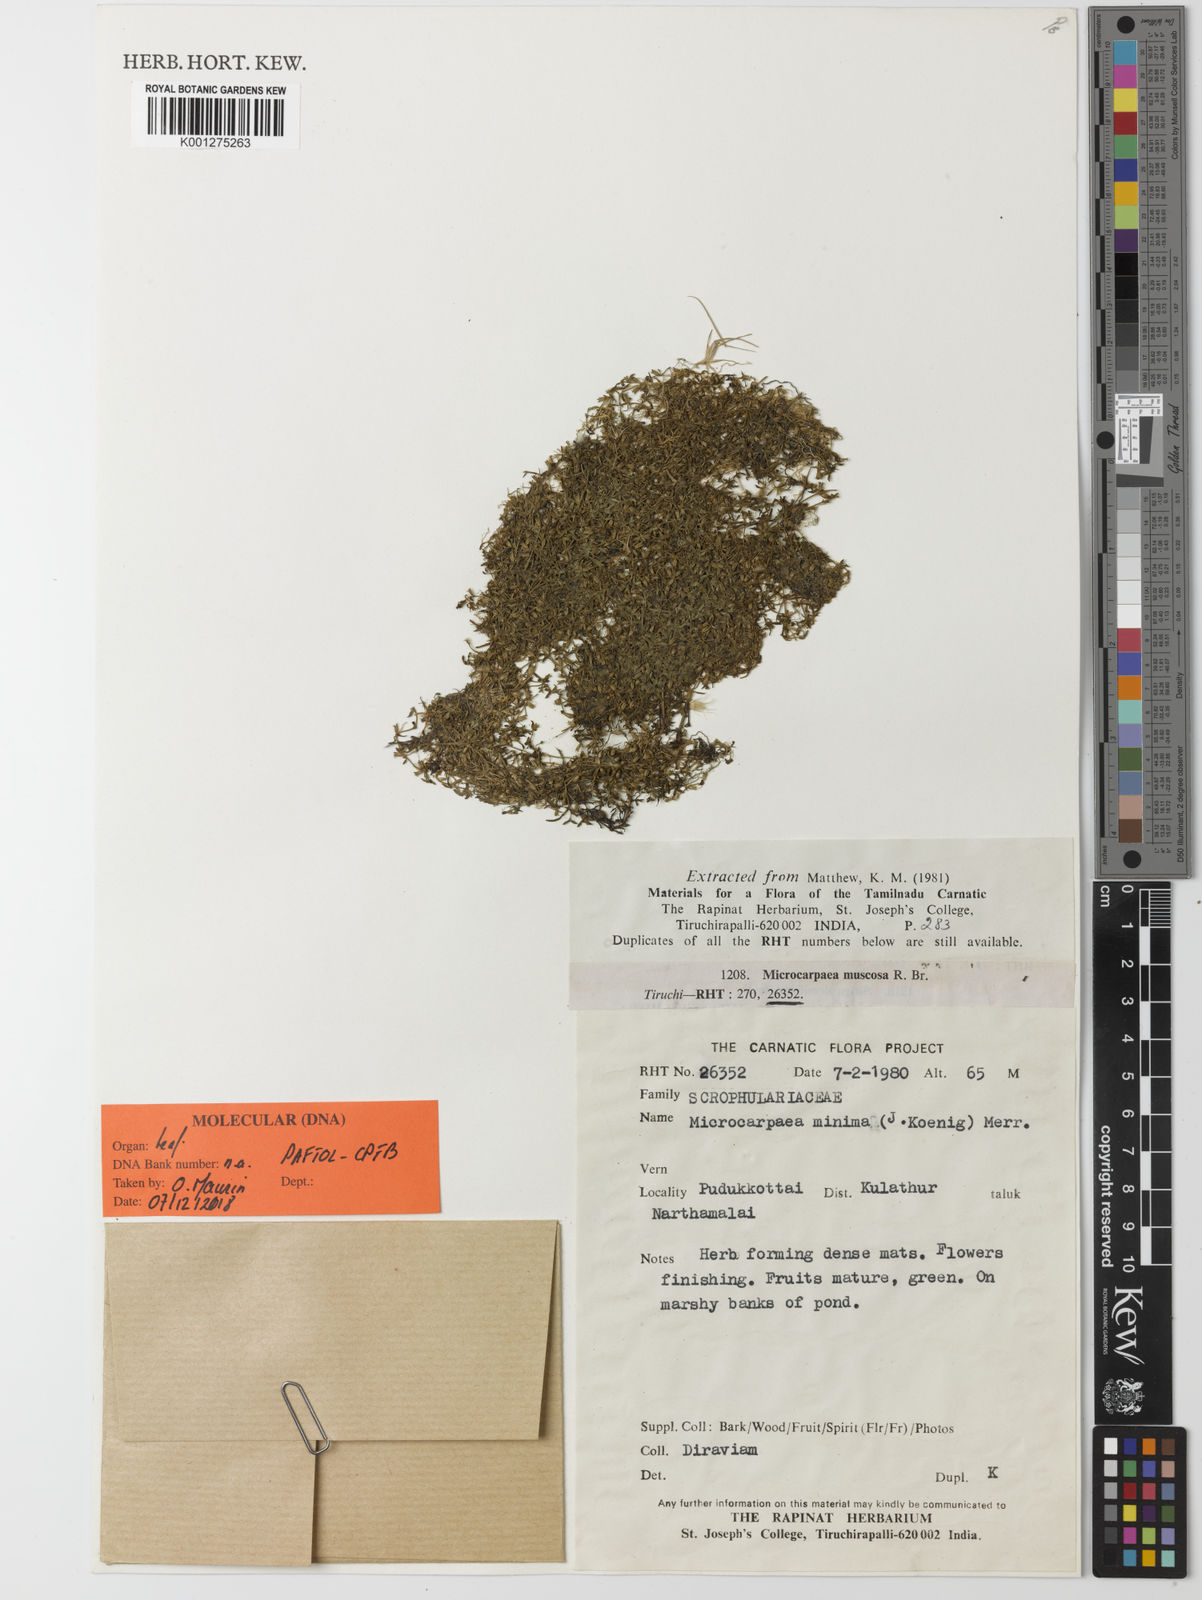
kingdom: Plantae
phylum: Tracheophyta
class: Magnoliopsida
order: Lamiales
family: Phrymaceae
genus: Microcarpaea
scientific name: Microcarpaea minima
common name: Chickweed sparrow
